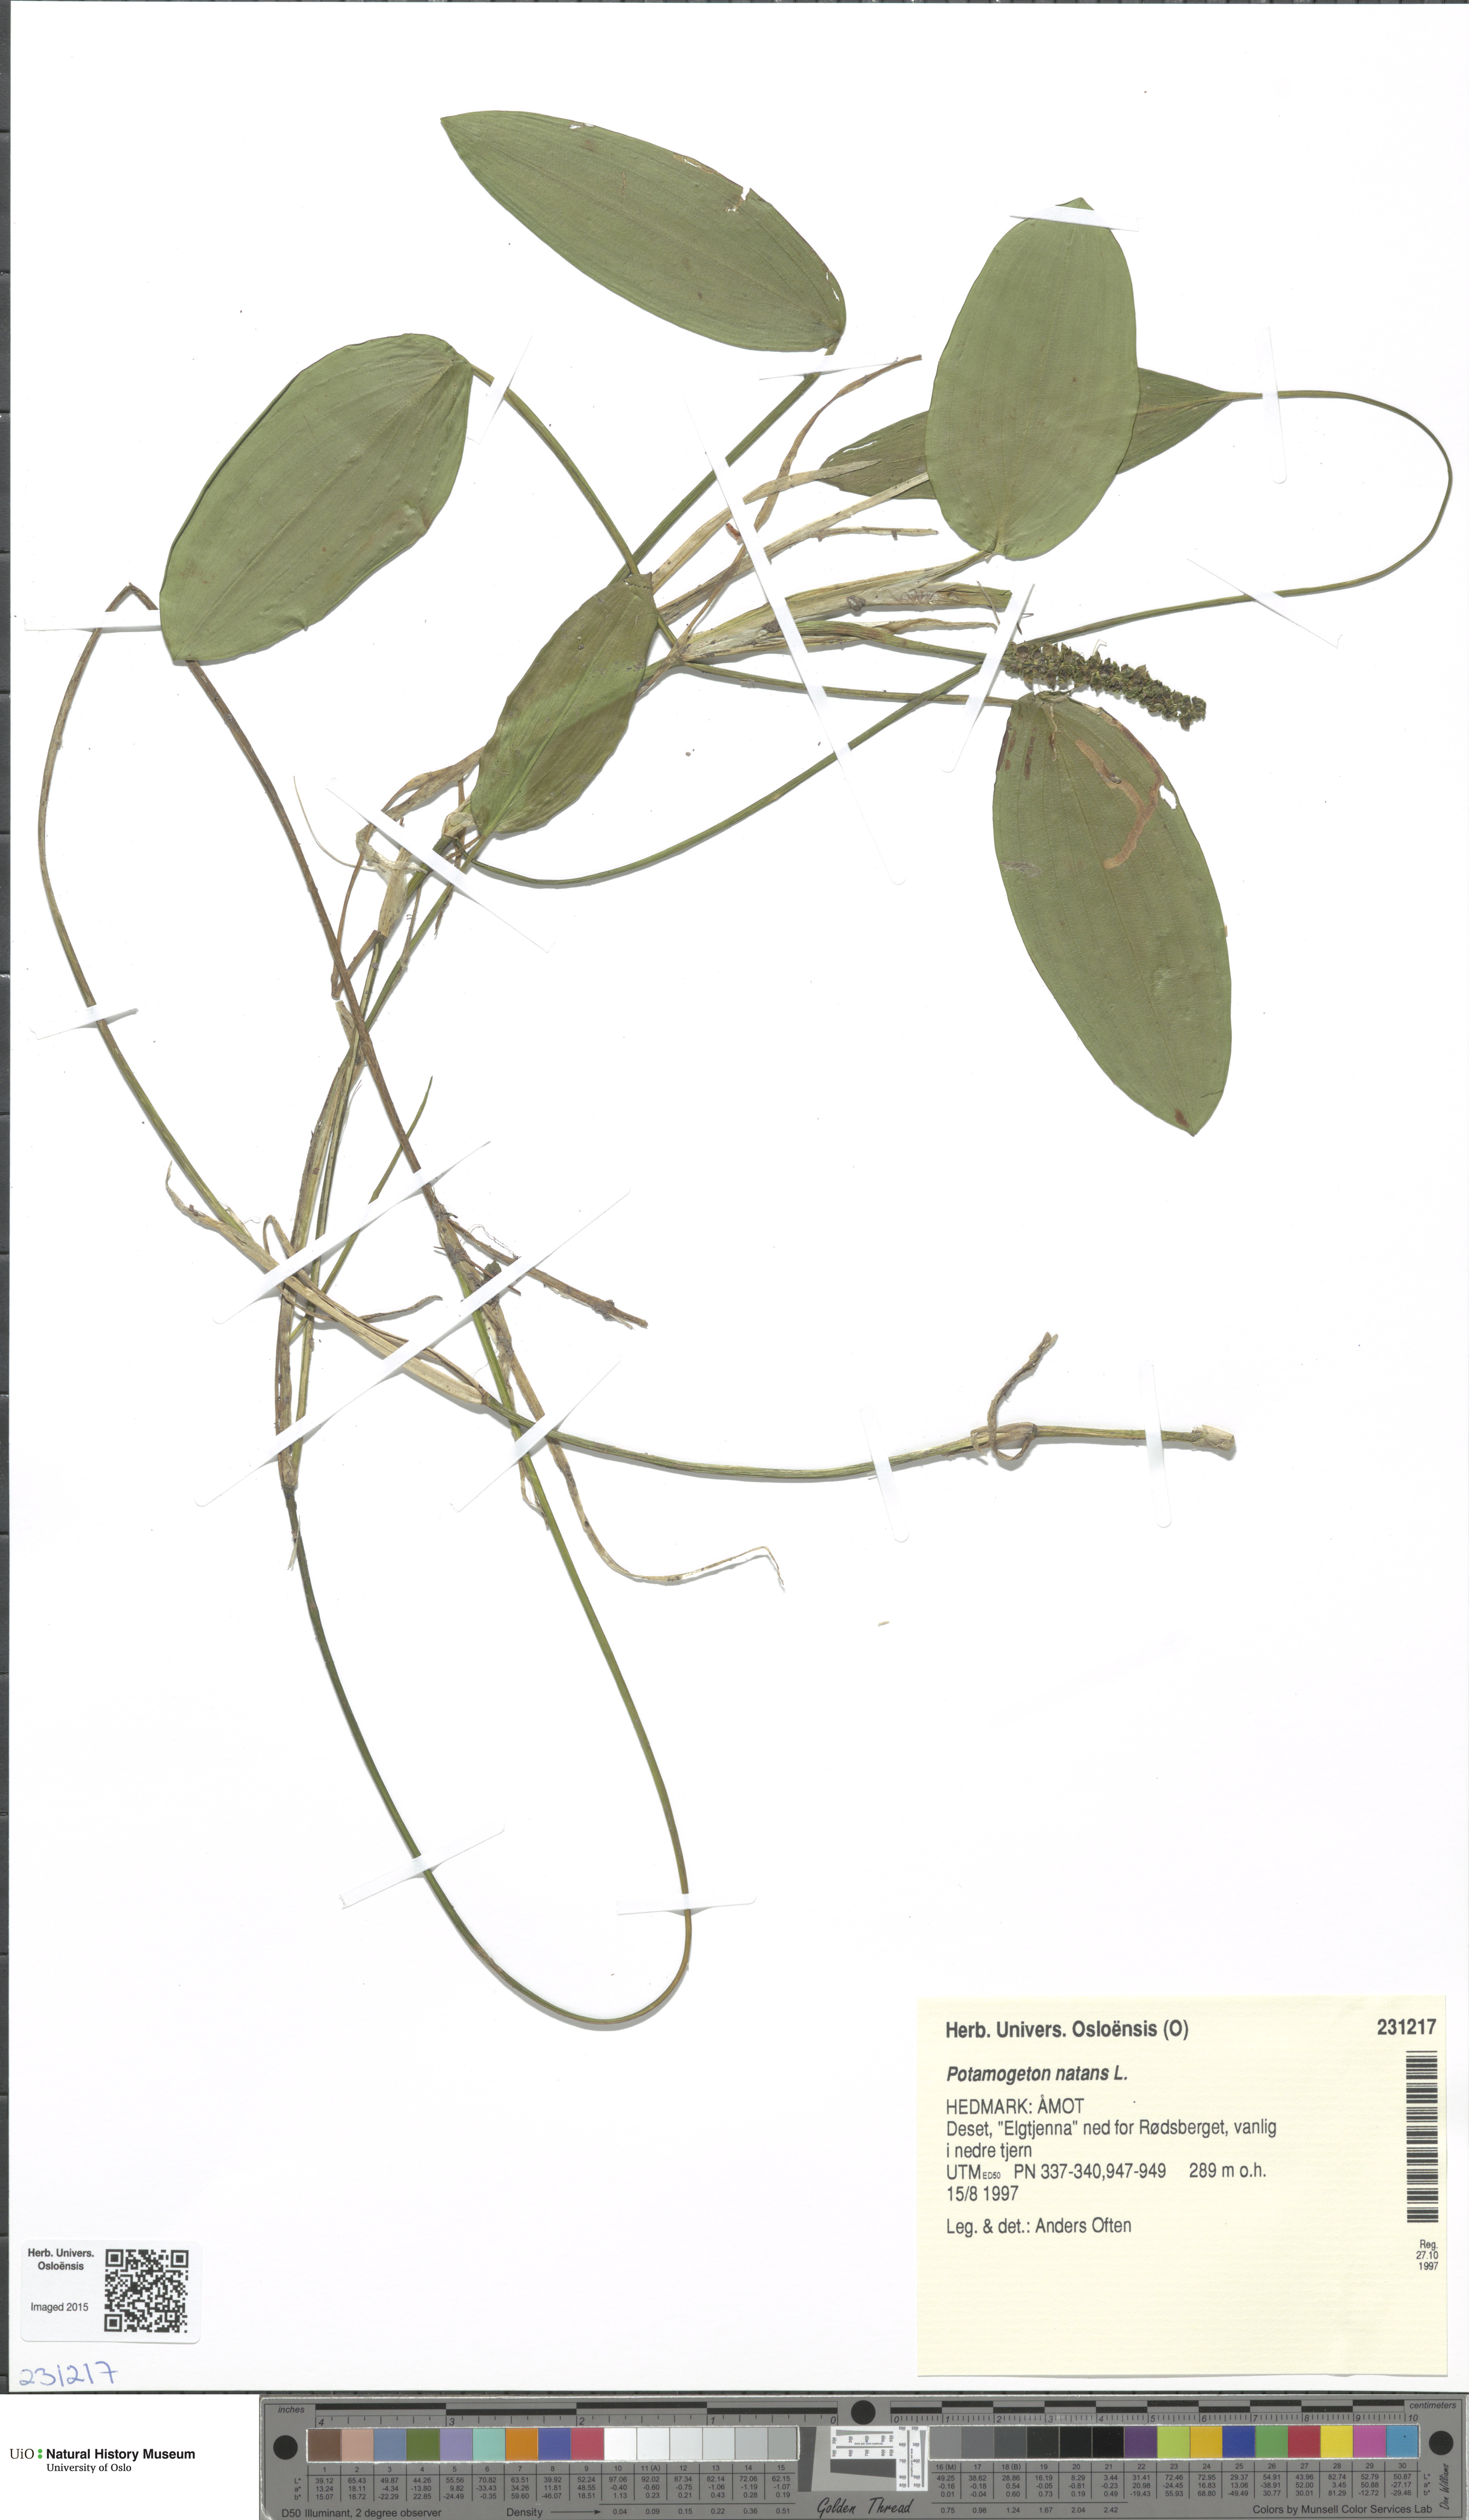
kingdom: Plantae
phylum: Tracheophyta
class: Liliopsida
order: Alismatales
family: Potamogetonaceae
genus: Potamogeton
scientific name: Potamogeton natans
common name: Broad-leaved pondweed
